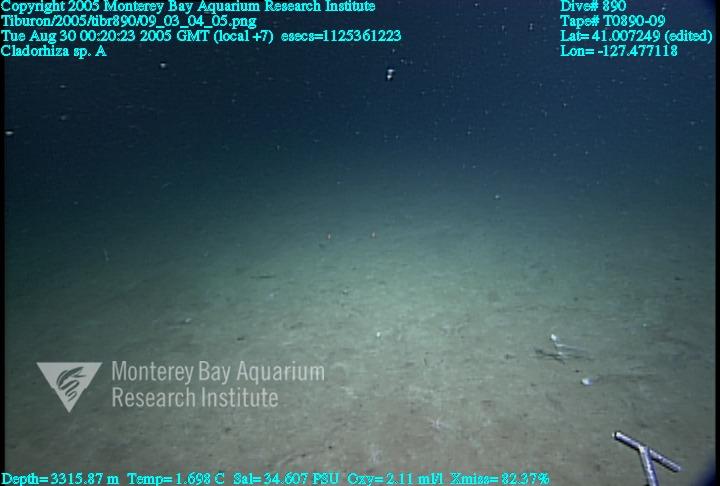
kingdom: Animalia
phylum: Porifera
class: Demospongiae
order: Poecilosclerida
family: Cladorhizidae
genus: Cladorhiza
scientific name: Cladorhiza
